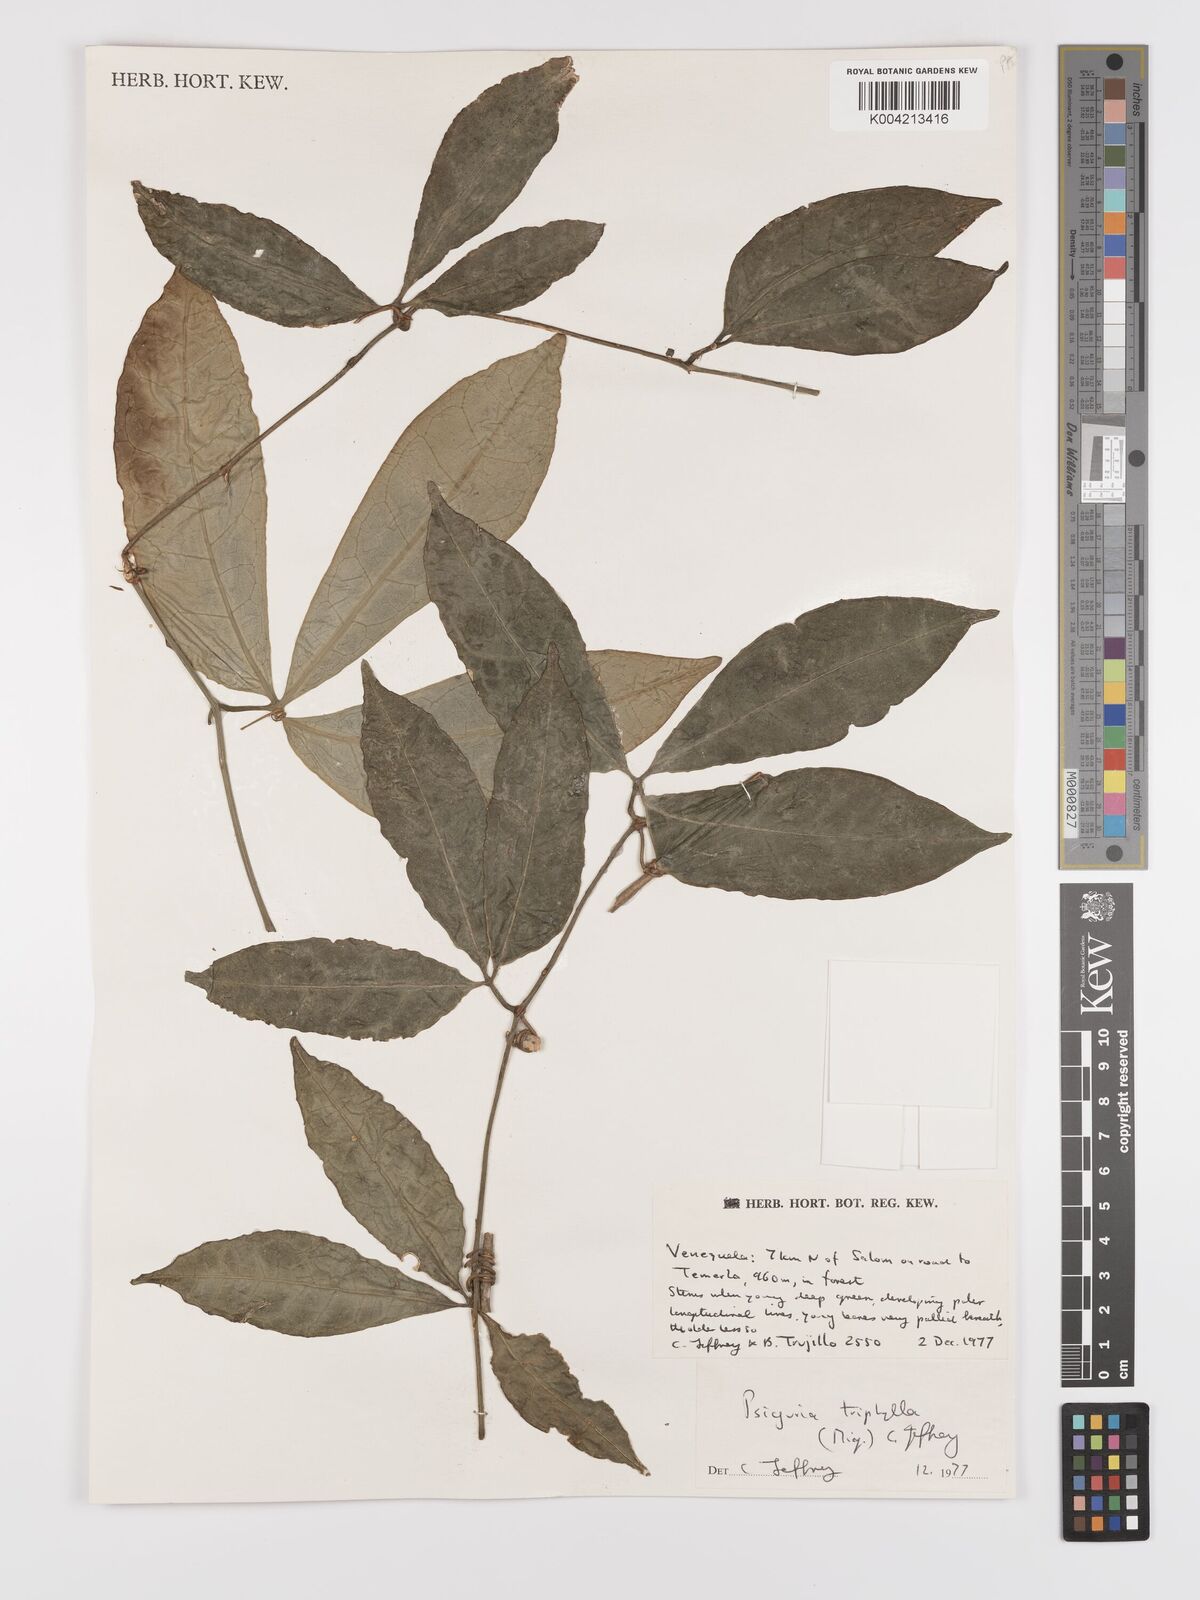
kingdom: Plantae
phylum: Tracheophyta
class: Magnoliopsida
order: Cucurbitales
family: Cucurbitaceae
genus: Psiguria
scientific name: Psiguria triphylla
